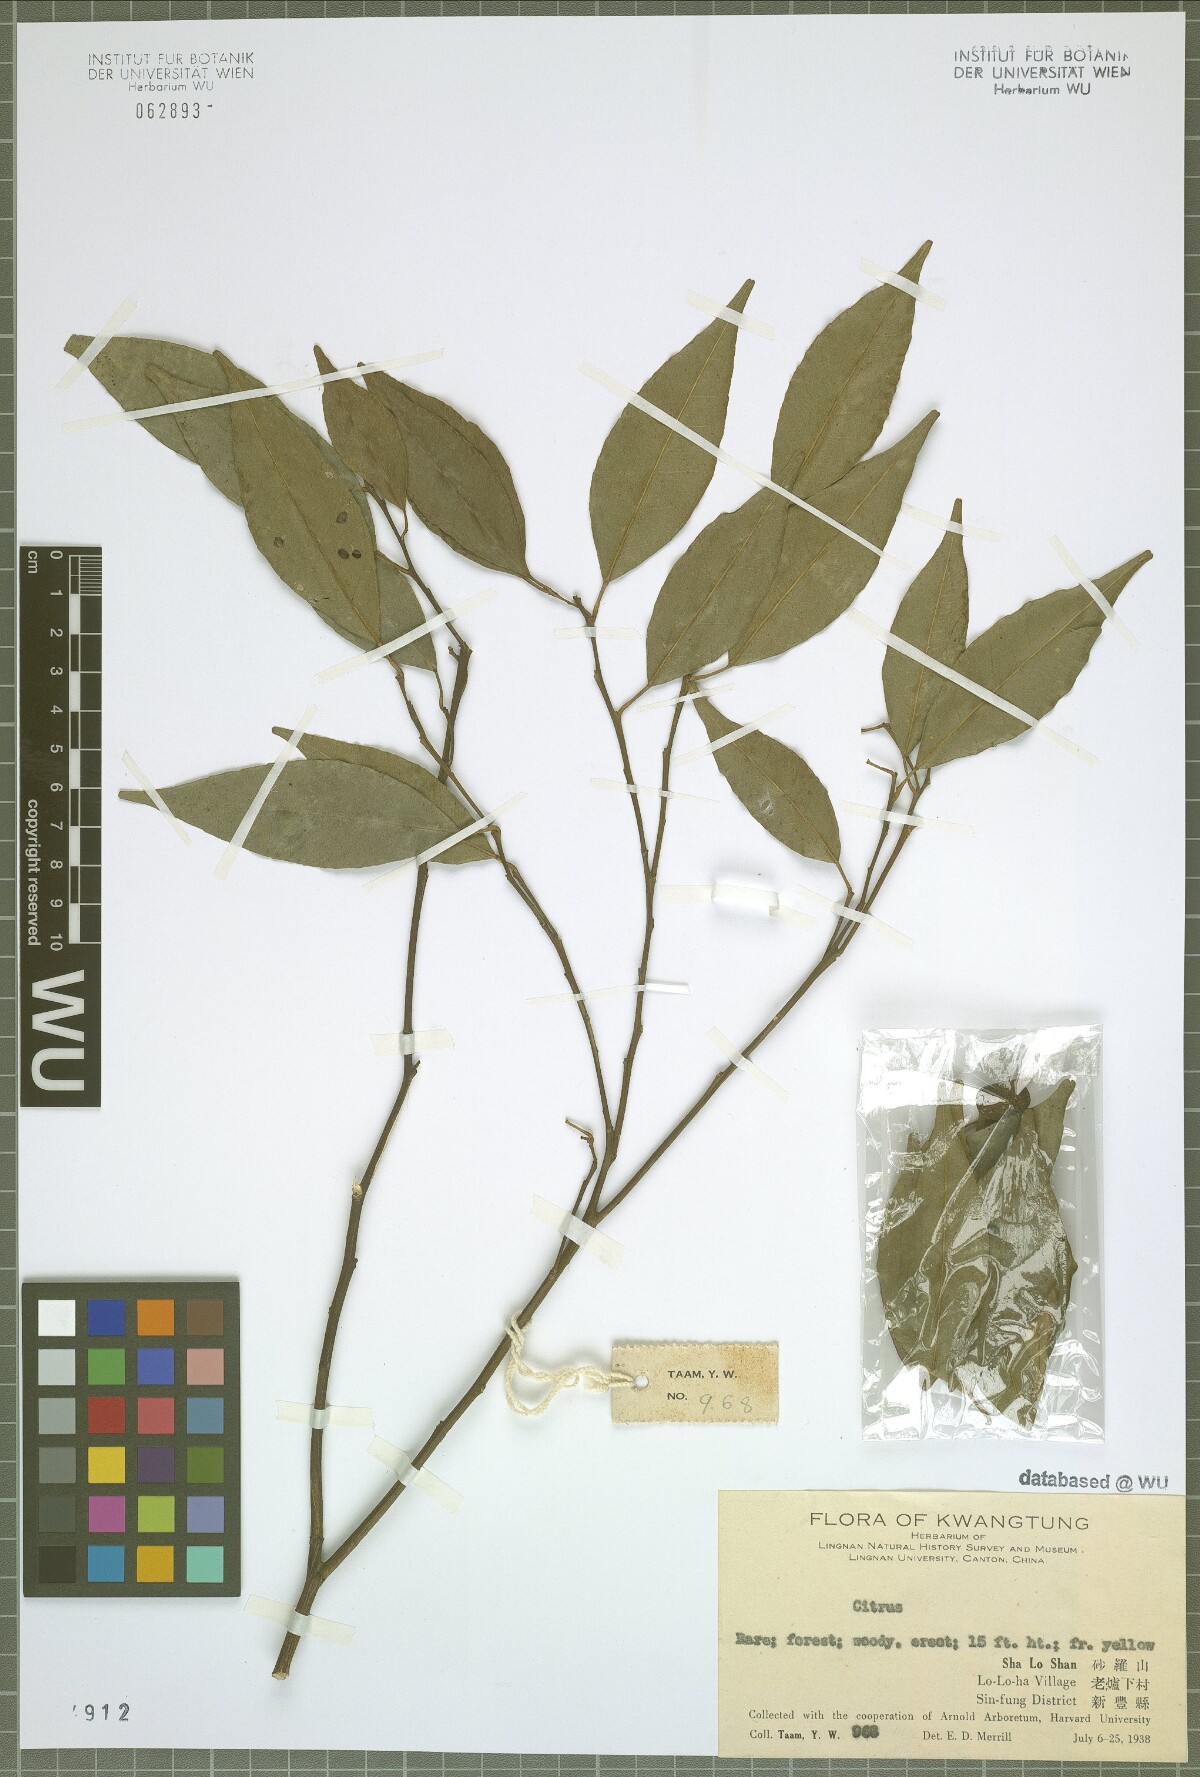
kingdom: Plantae
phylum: Tracheophyta
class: Magnoliopsida
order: Sapindales
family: Rutaceae
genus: Citrus
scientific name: Citrus
